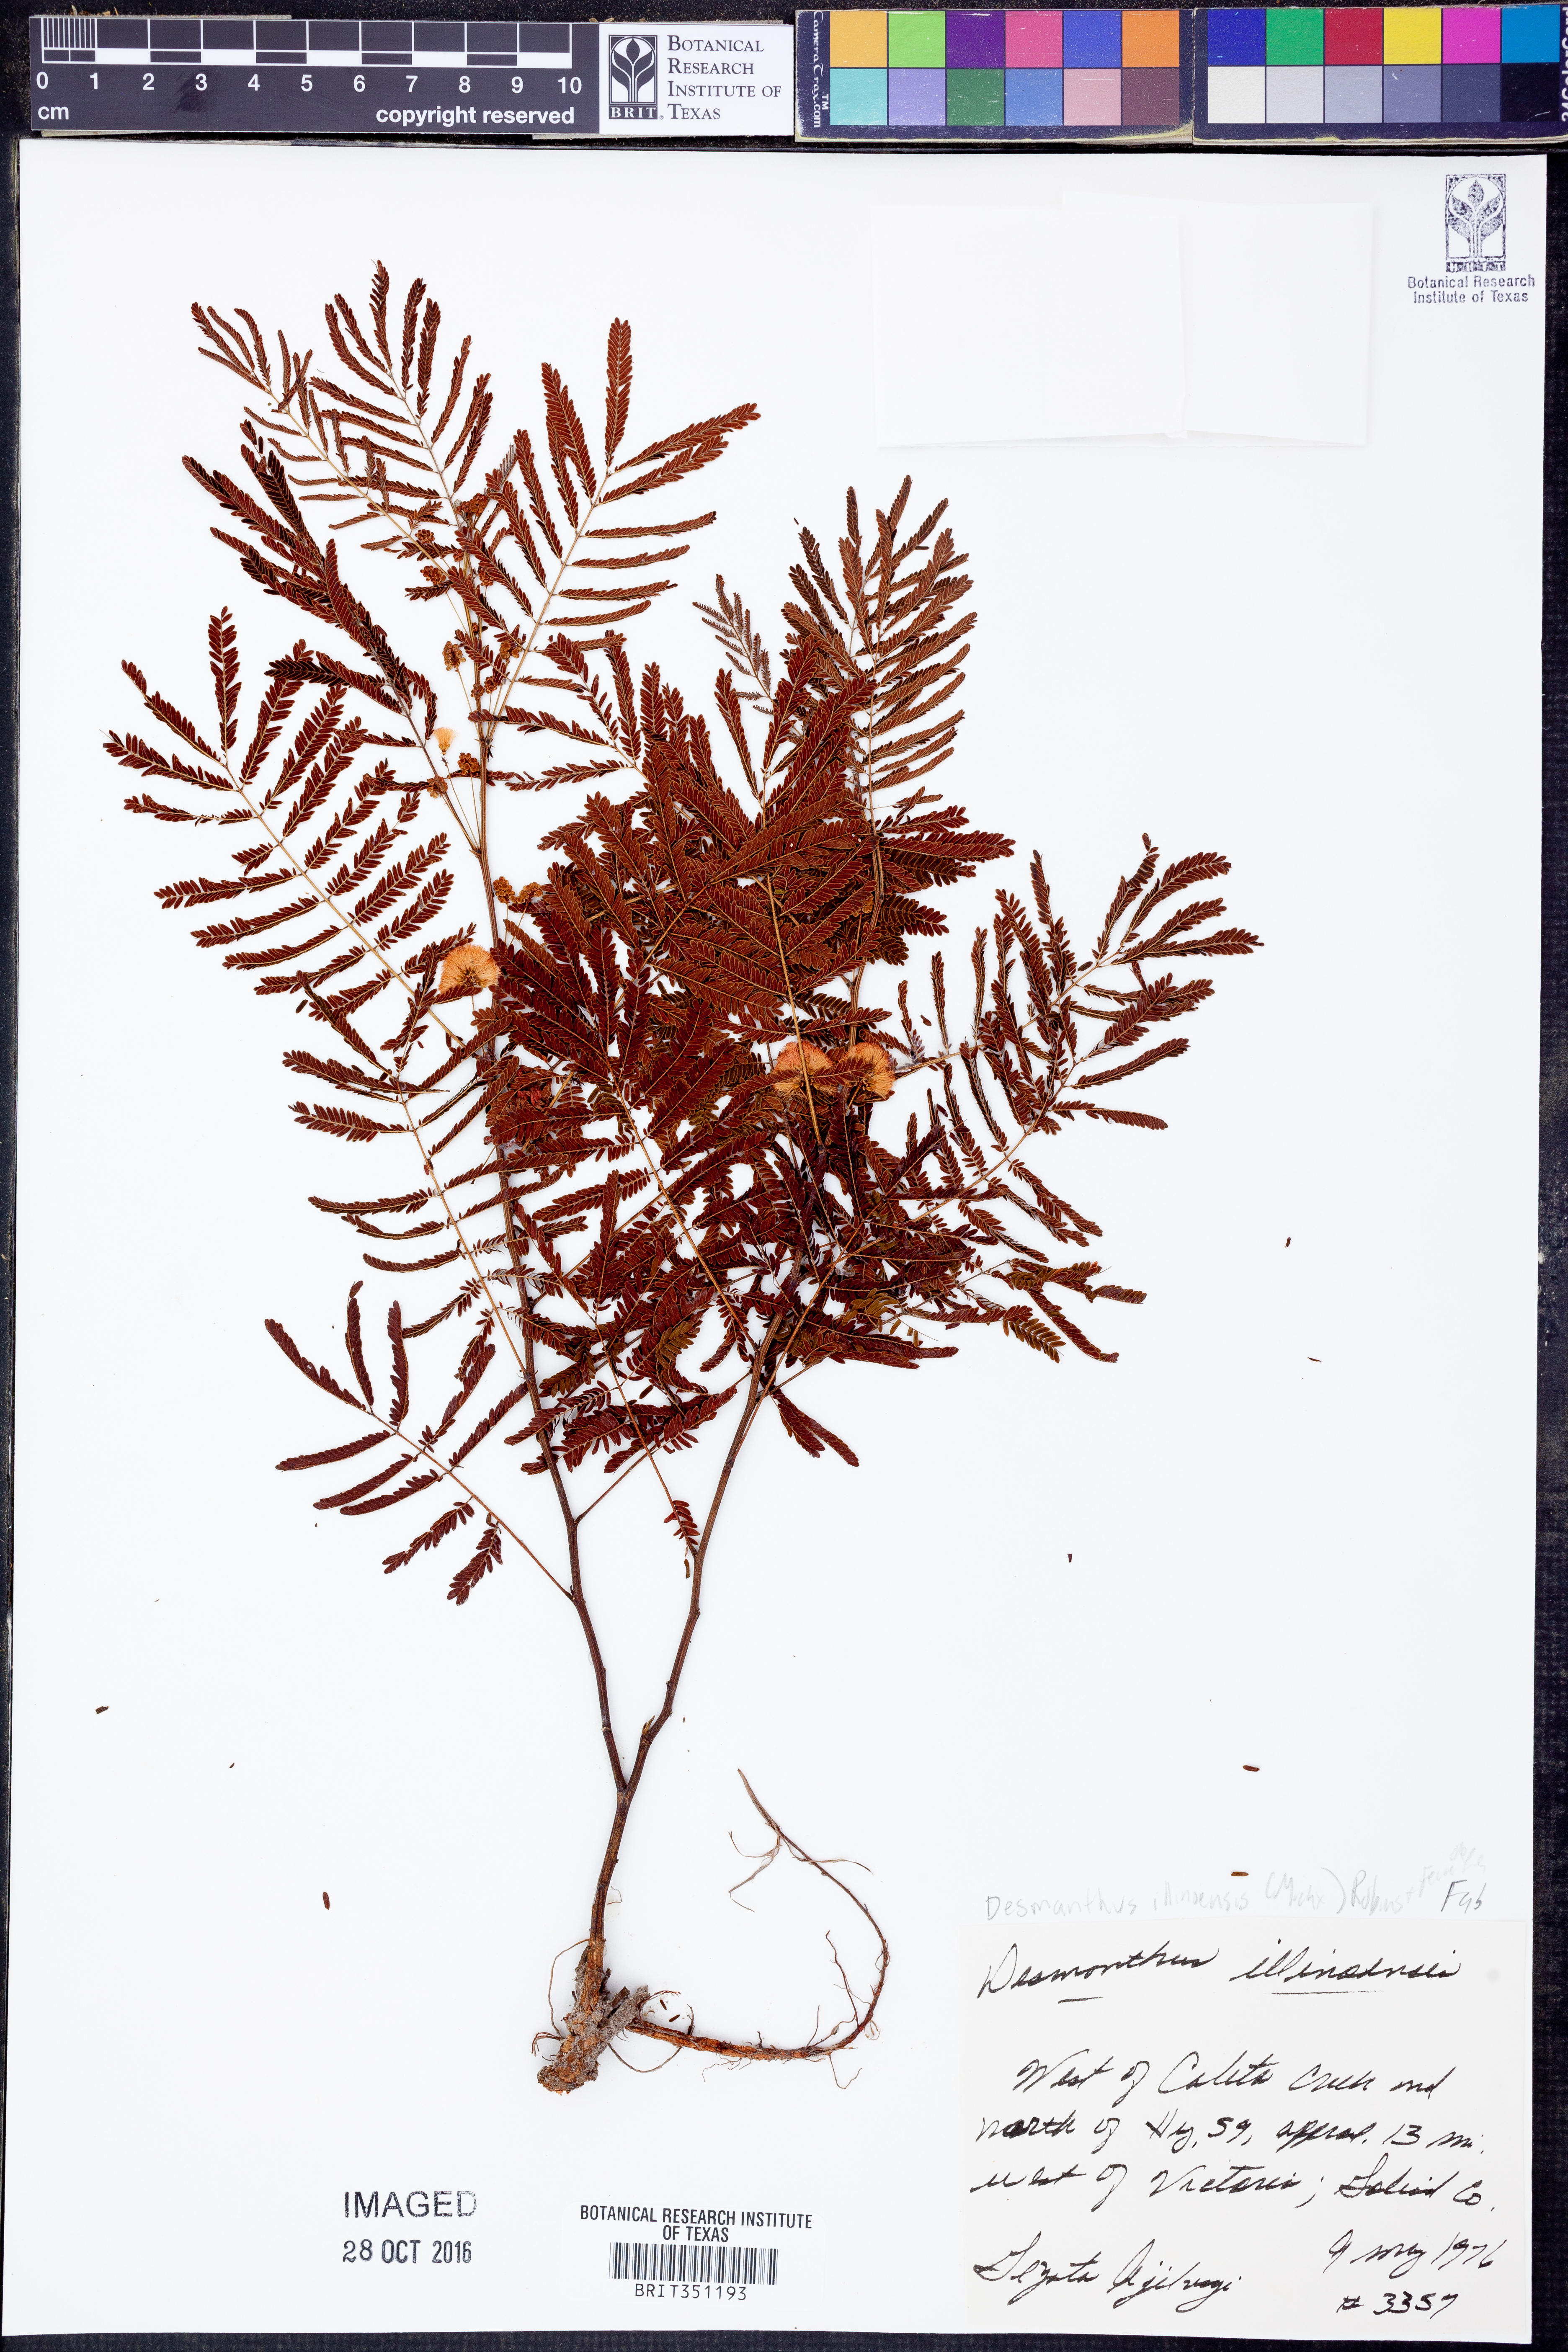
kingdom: Plantae
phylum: Tracheophyta
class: Magnoliopsida
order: Fabales
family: Fabaceae
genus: Desmanthus
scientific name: Desmanthus illinoensis
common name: Illinois bundle-flower
